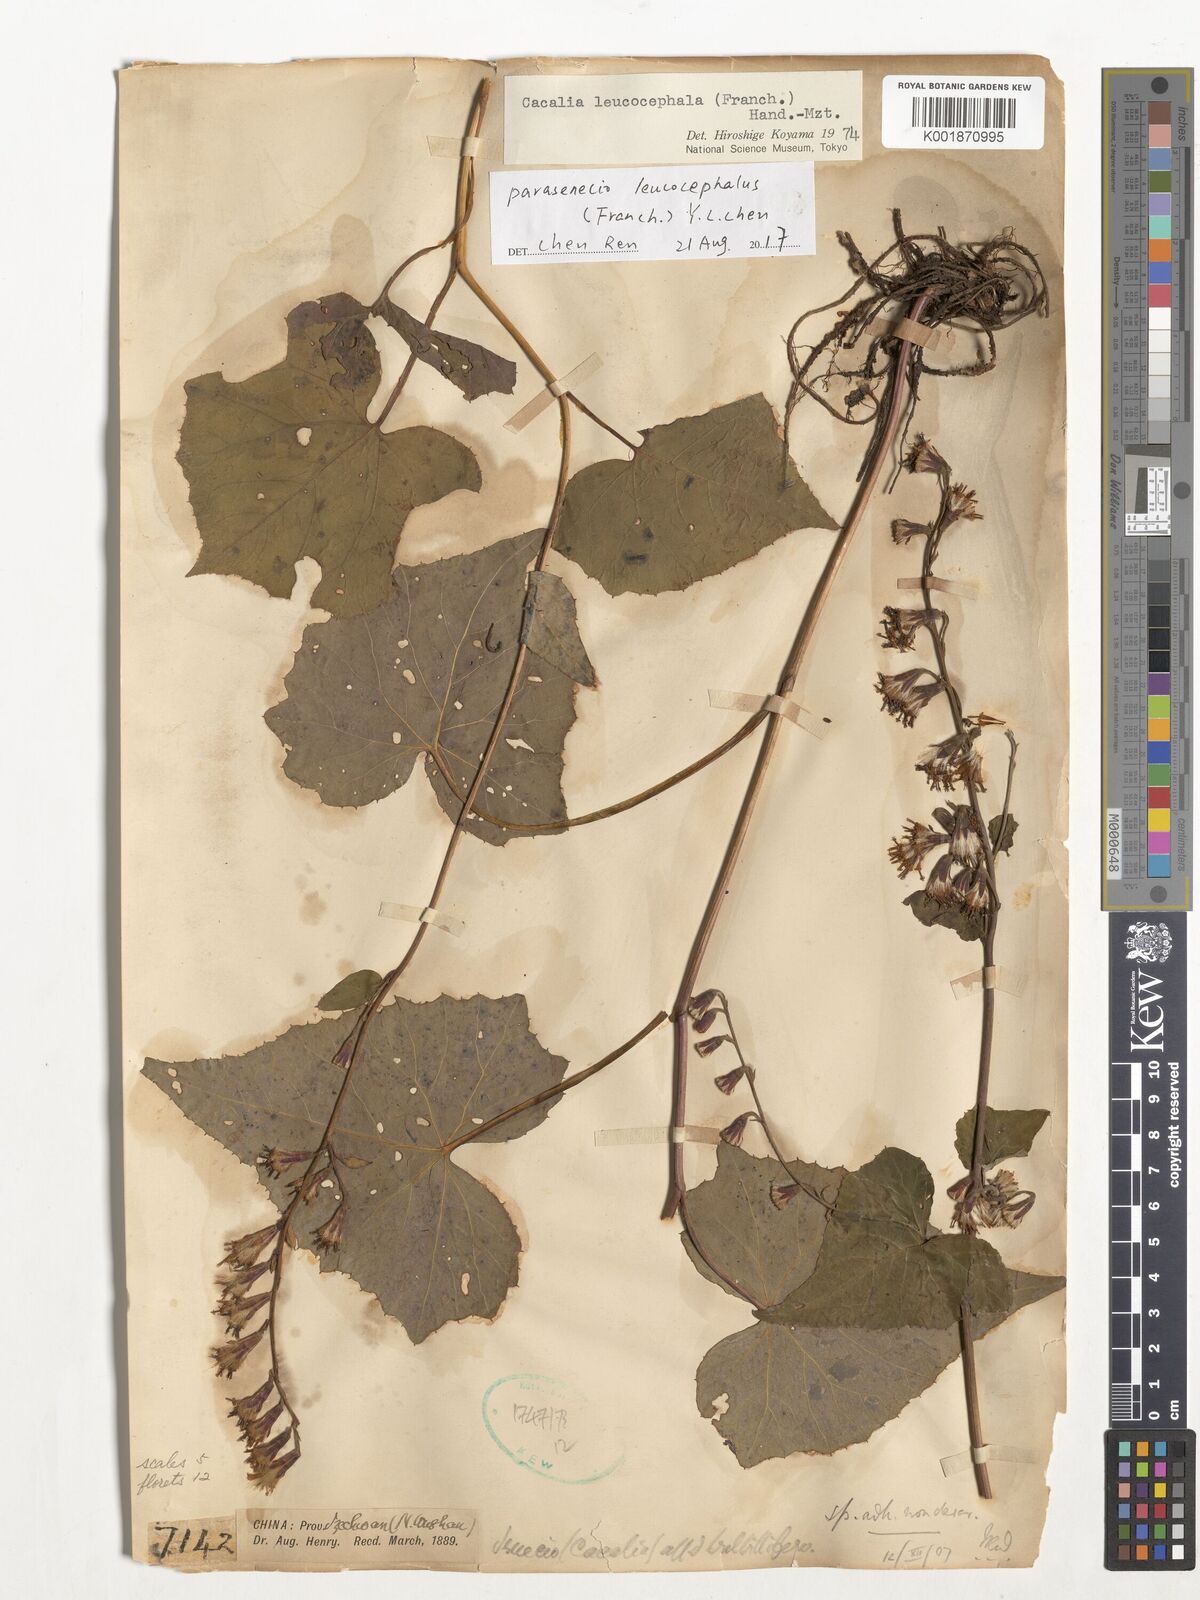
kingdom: Plantae
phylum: Tracheophyta
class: Magnoliopsida
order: Asterales
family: Asteraceae
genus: Parasenecio
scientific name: Parasenecio leucocephalus
